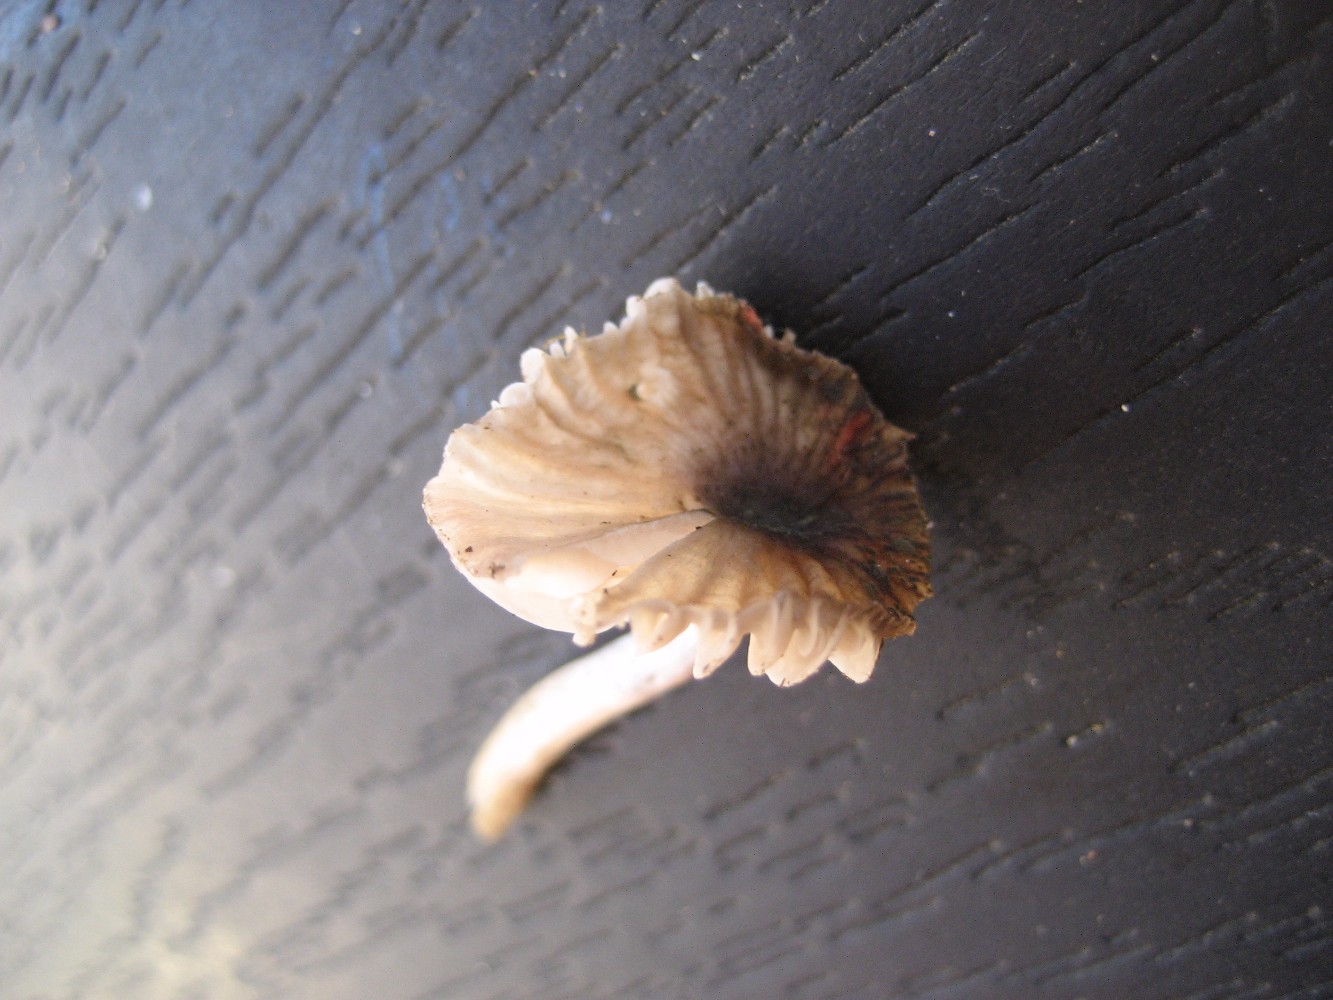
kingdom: Fungi
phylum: Basidiomycota
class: Agaricomycetes
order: Agaricales
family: Hygrophoraceae
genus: Cuphophyllus
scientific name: Cuphophyllus flavipes
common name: gulfodet vokshat
